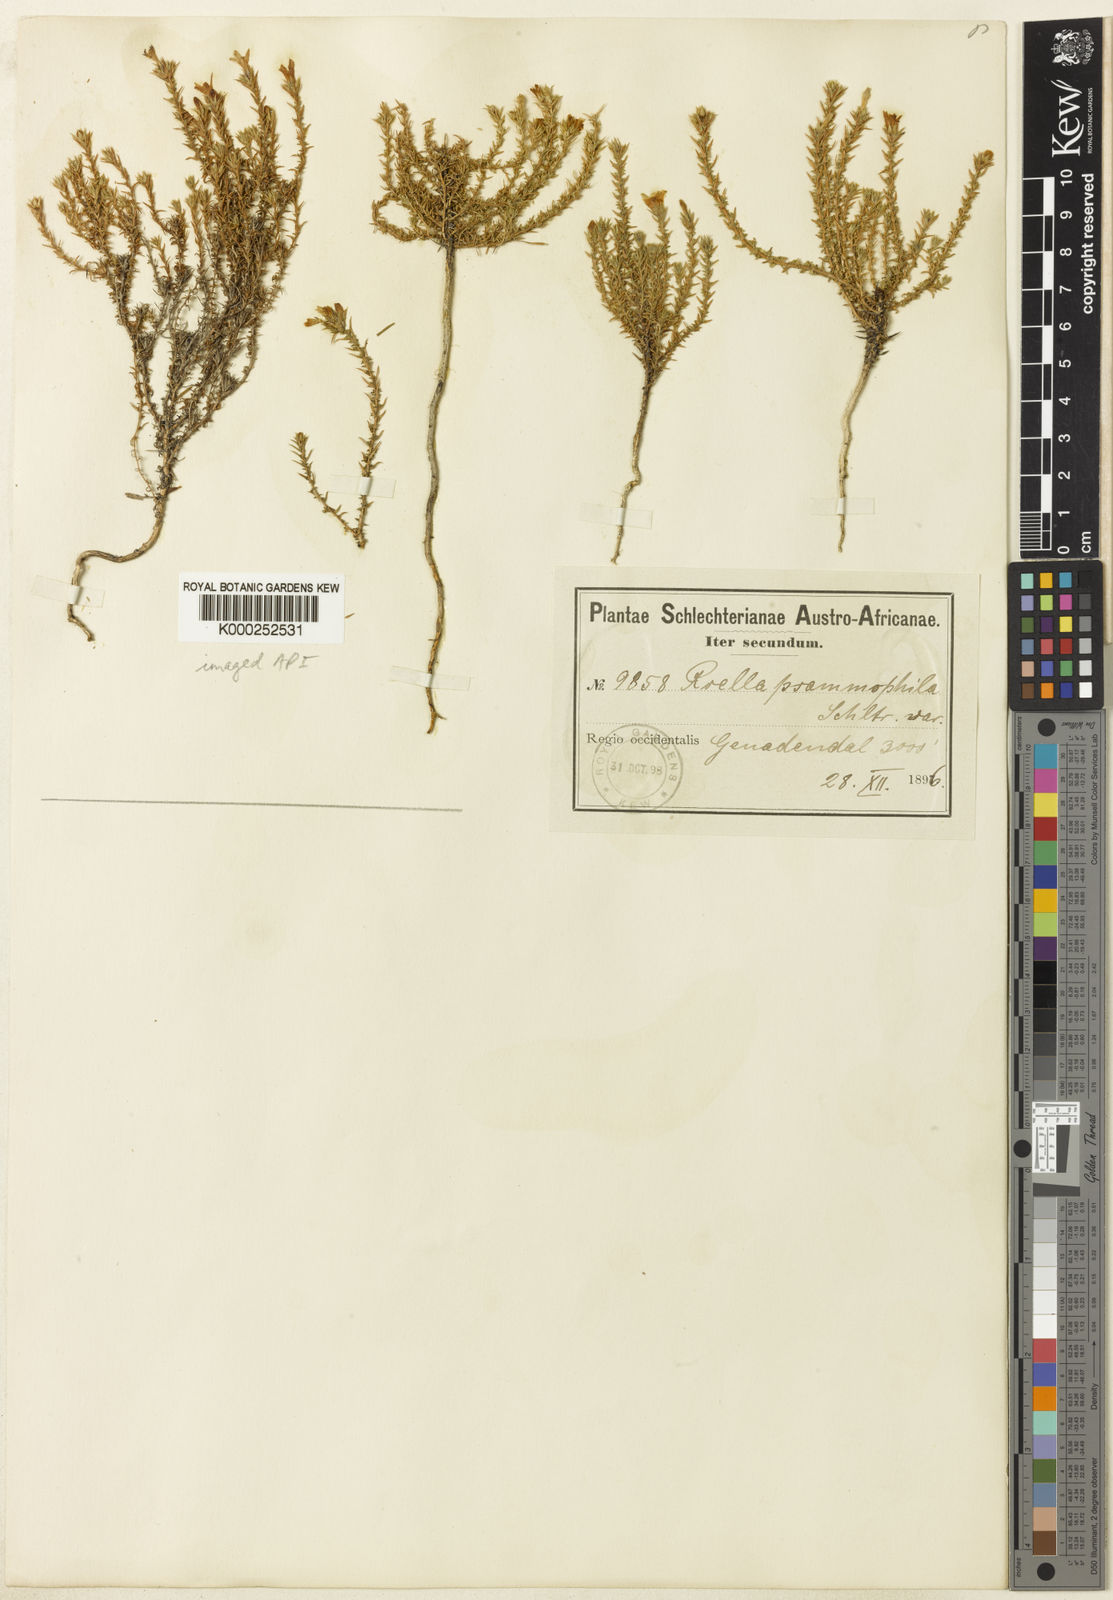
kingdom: Plantae
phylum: Tracheophyta
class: Magnoliopsida
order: Asterales
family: Campanulaceae
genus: Roella
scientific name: Roella dregeana
